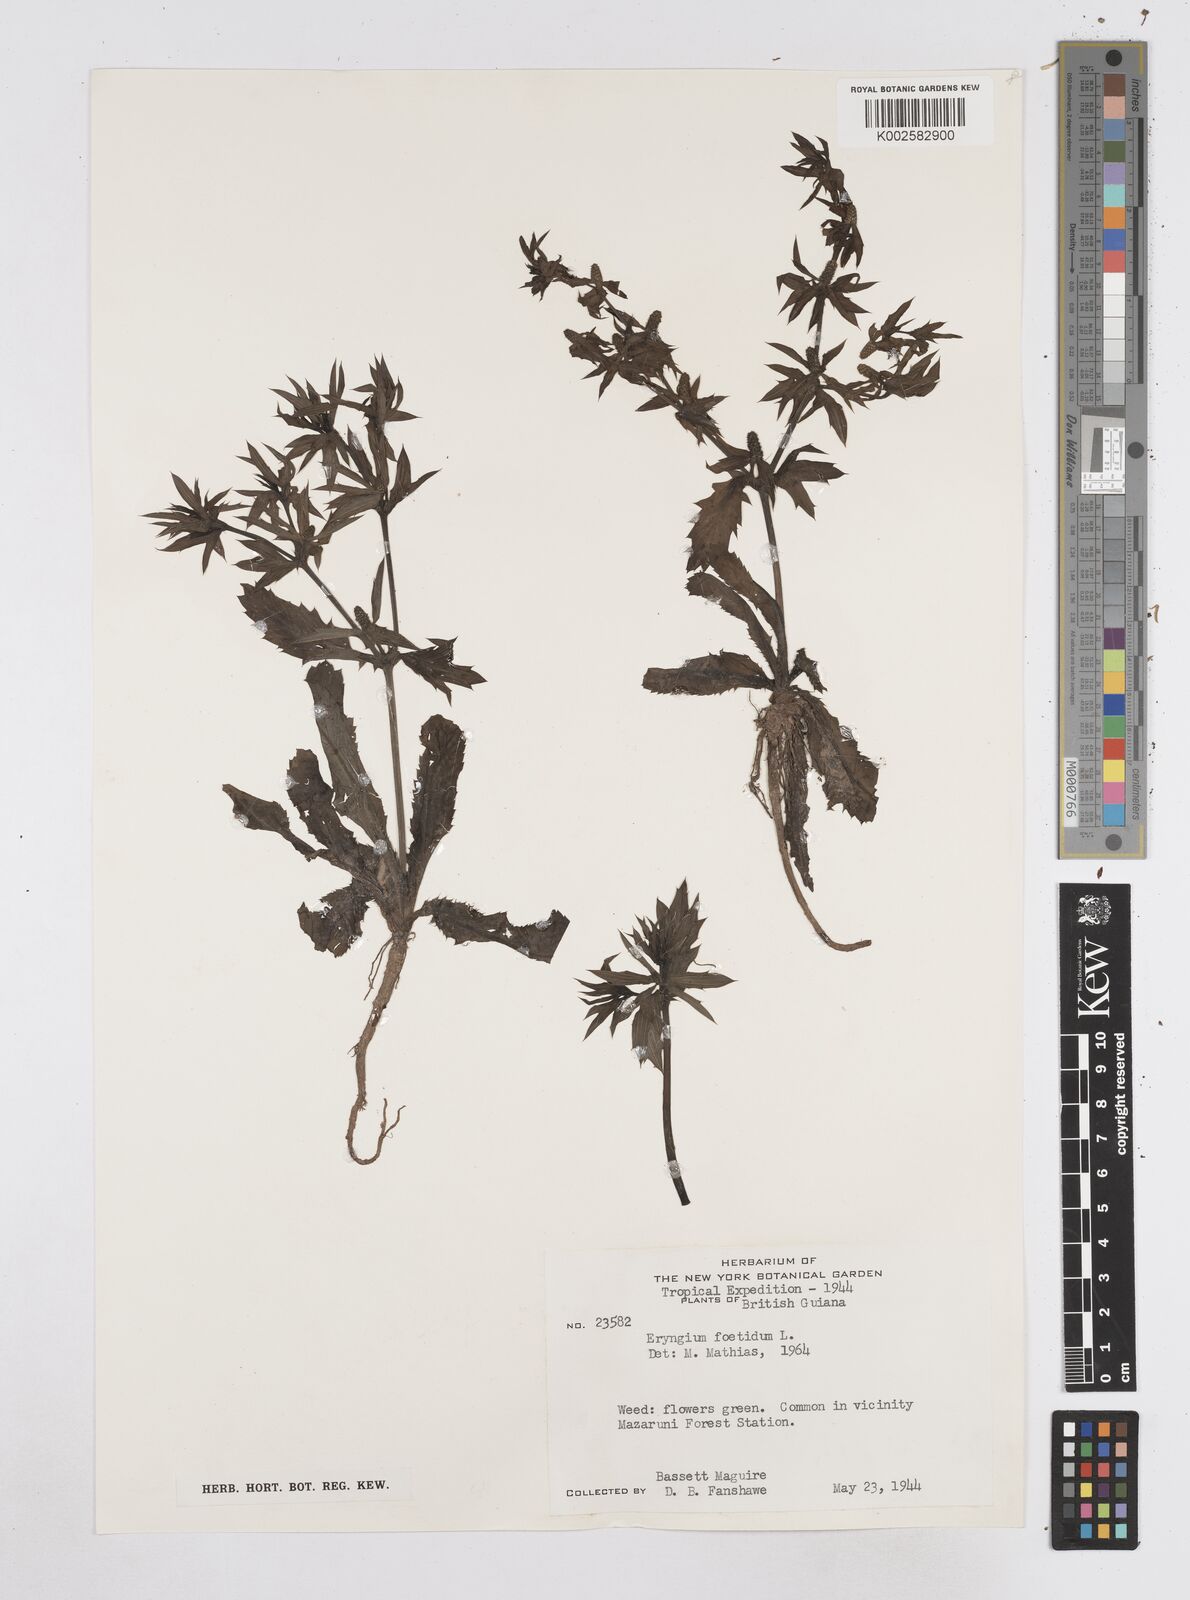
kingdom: Plantae
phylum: Tracheophyta
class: Magnoliopsida
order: Apiales
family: Apiaceae
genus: Eryngium
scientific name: Eryngium foetidum
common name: Fitweed
